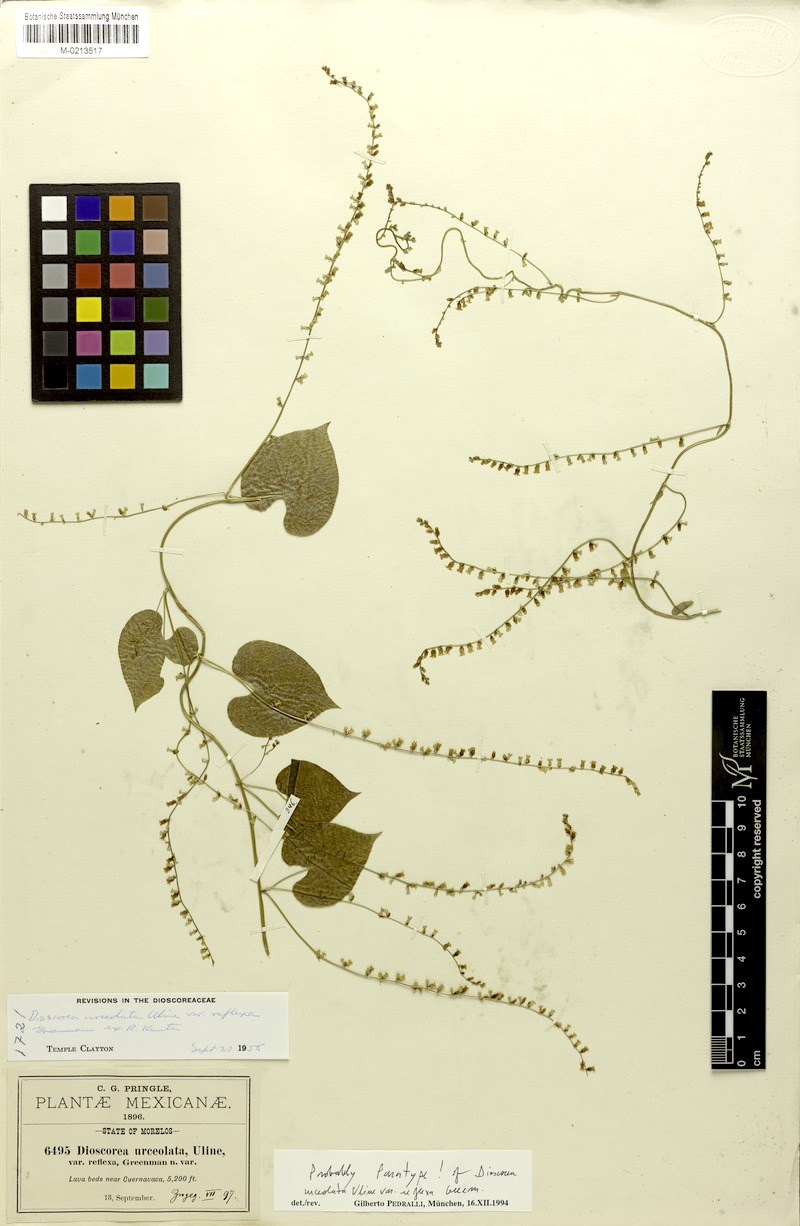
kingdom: Plantae
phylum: Tracheophyta
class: Liliopsida
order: Dioscoreales
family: Dioscoreaceae
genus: Dioscorea
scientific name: Dioscorea urceolata
